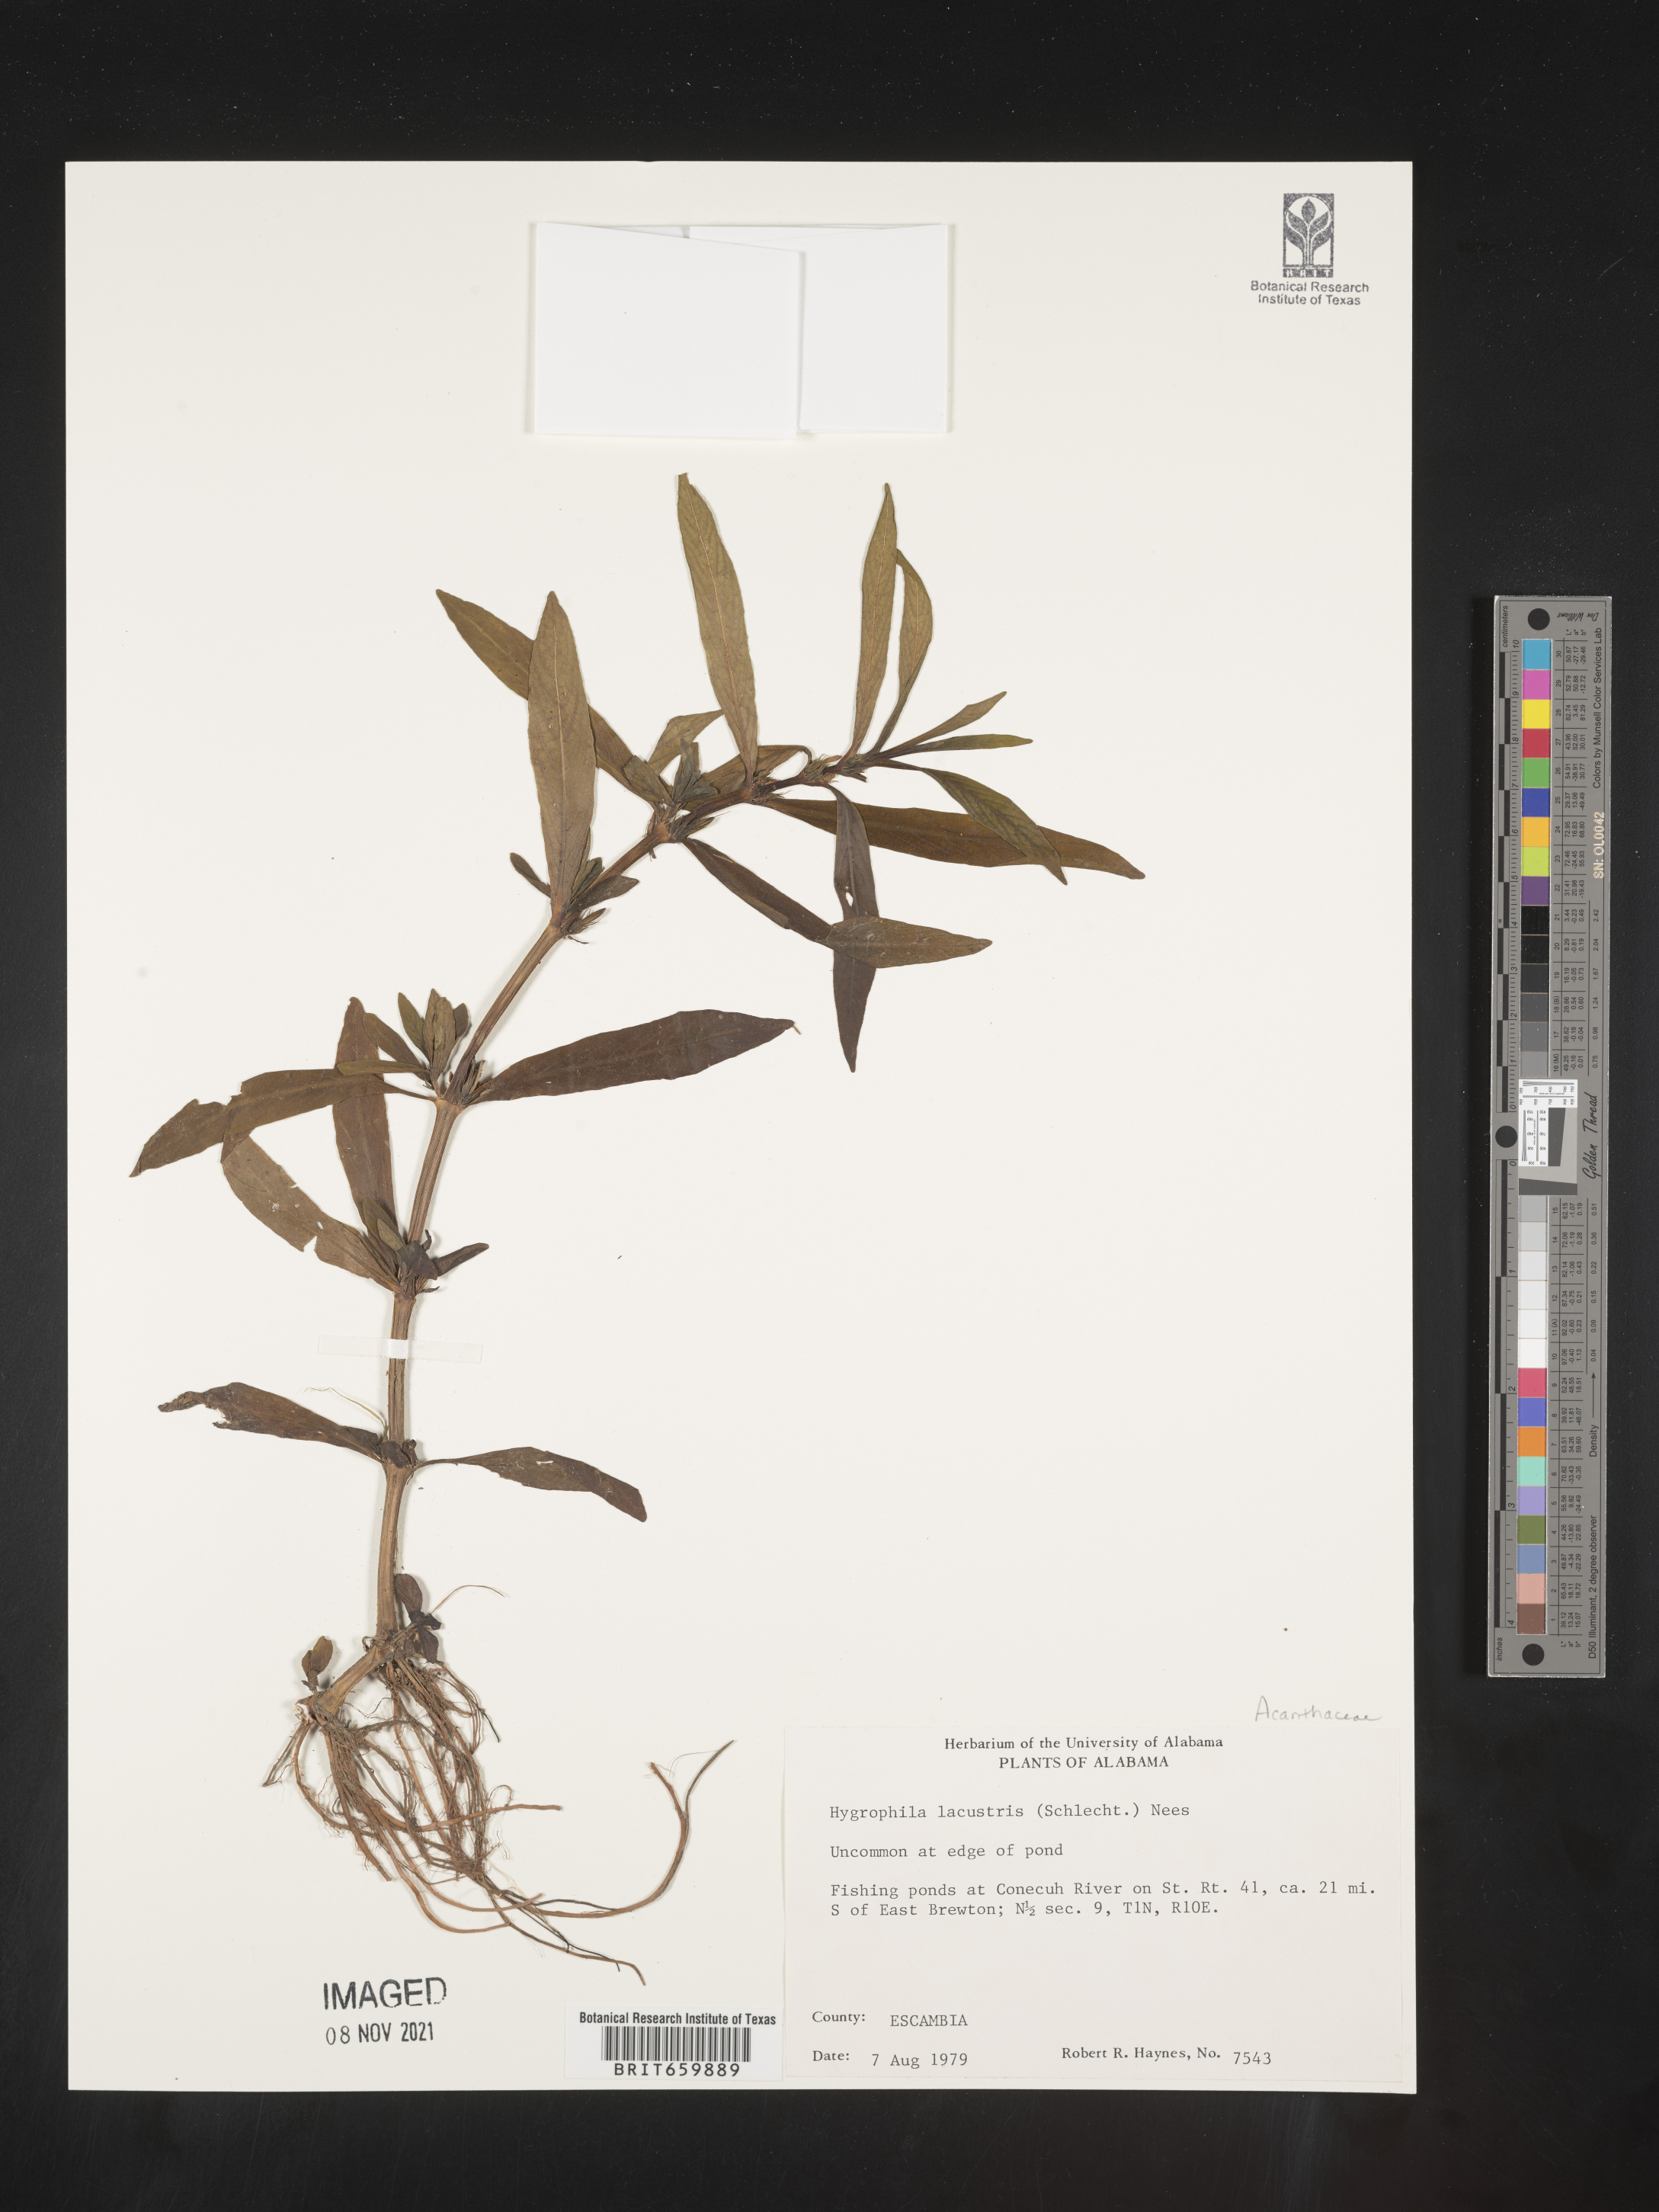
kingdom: Plantae
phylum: Tracheophyta
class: Magnoliopsida
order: Lamiales
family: Acanthaceae
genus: Hygrophila
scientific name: Hygrophila costata
